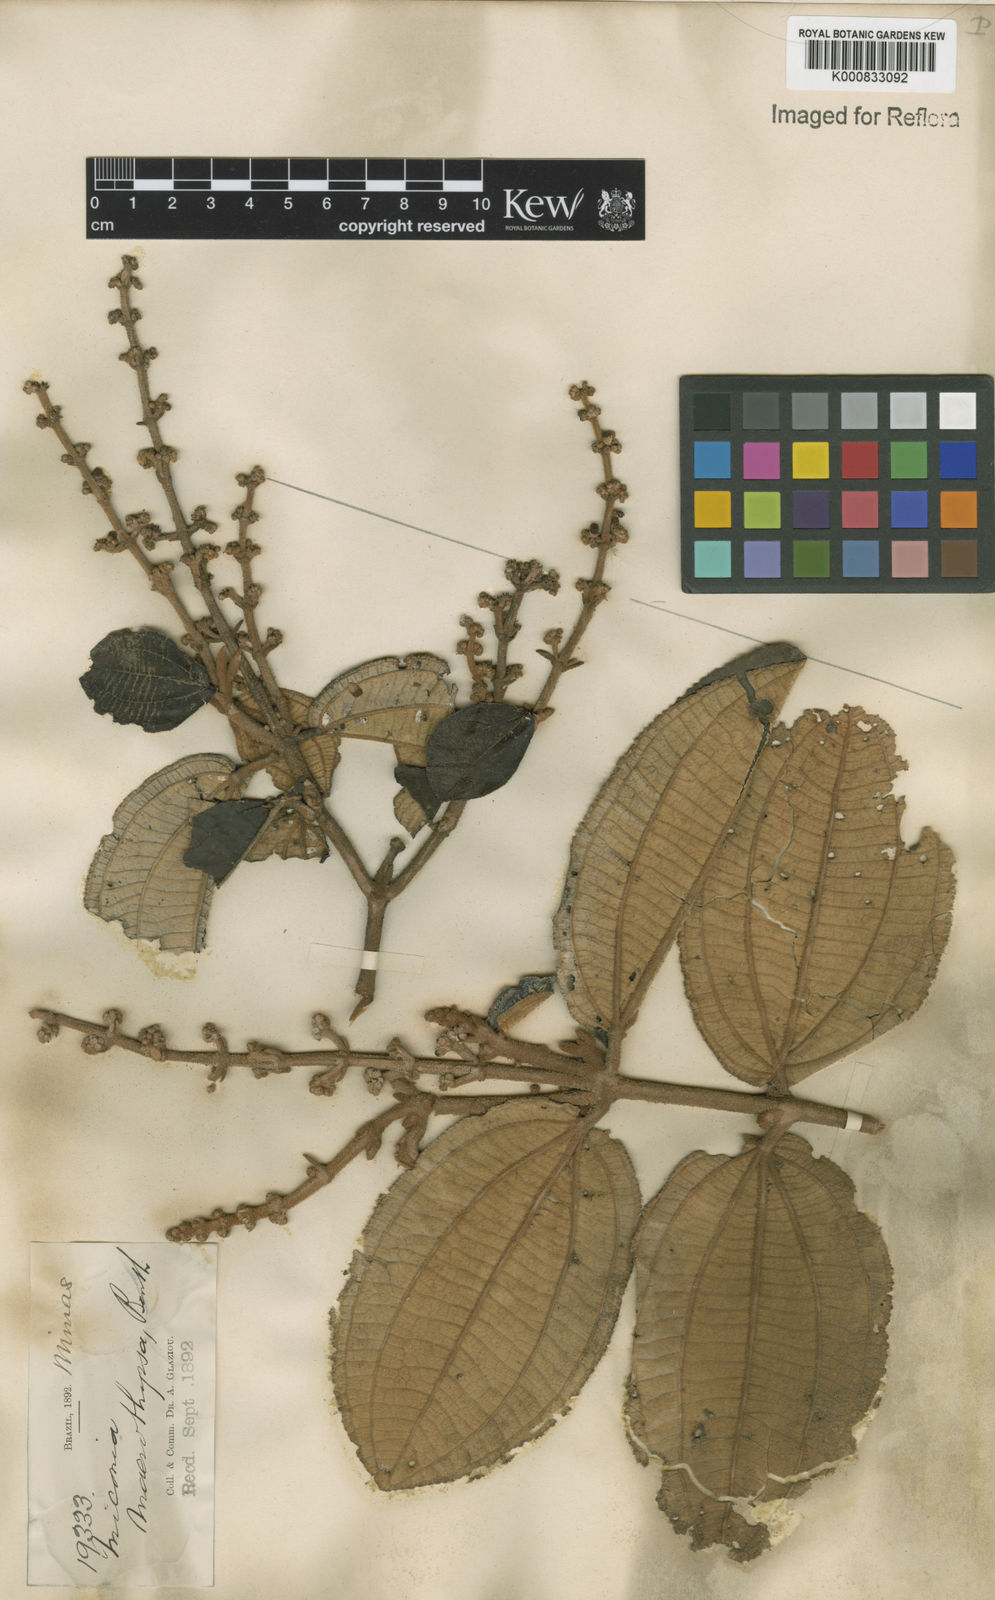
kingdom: Plantae
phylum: Tracheophyta
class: Magnoliopsida
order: Myrtales
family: Melastomataceae
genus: Miconia
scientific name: Miconia macrothyrsa
